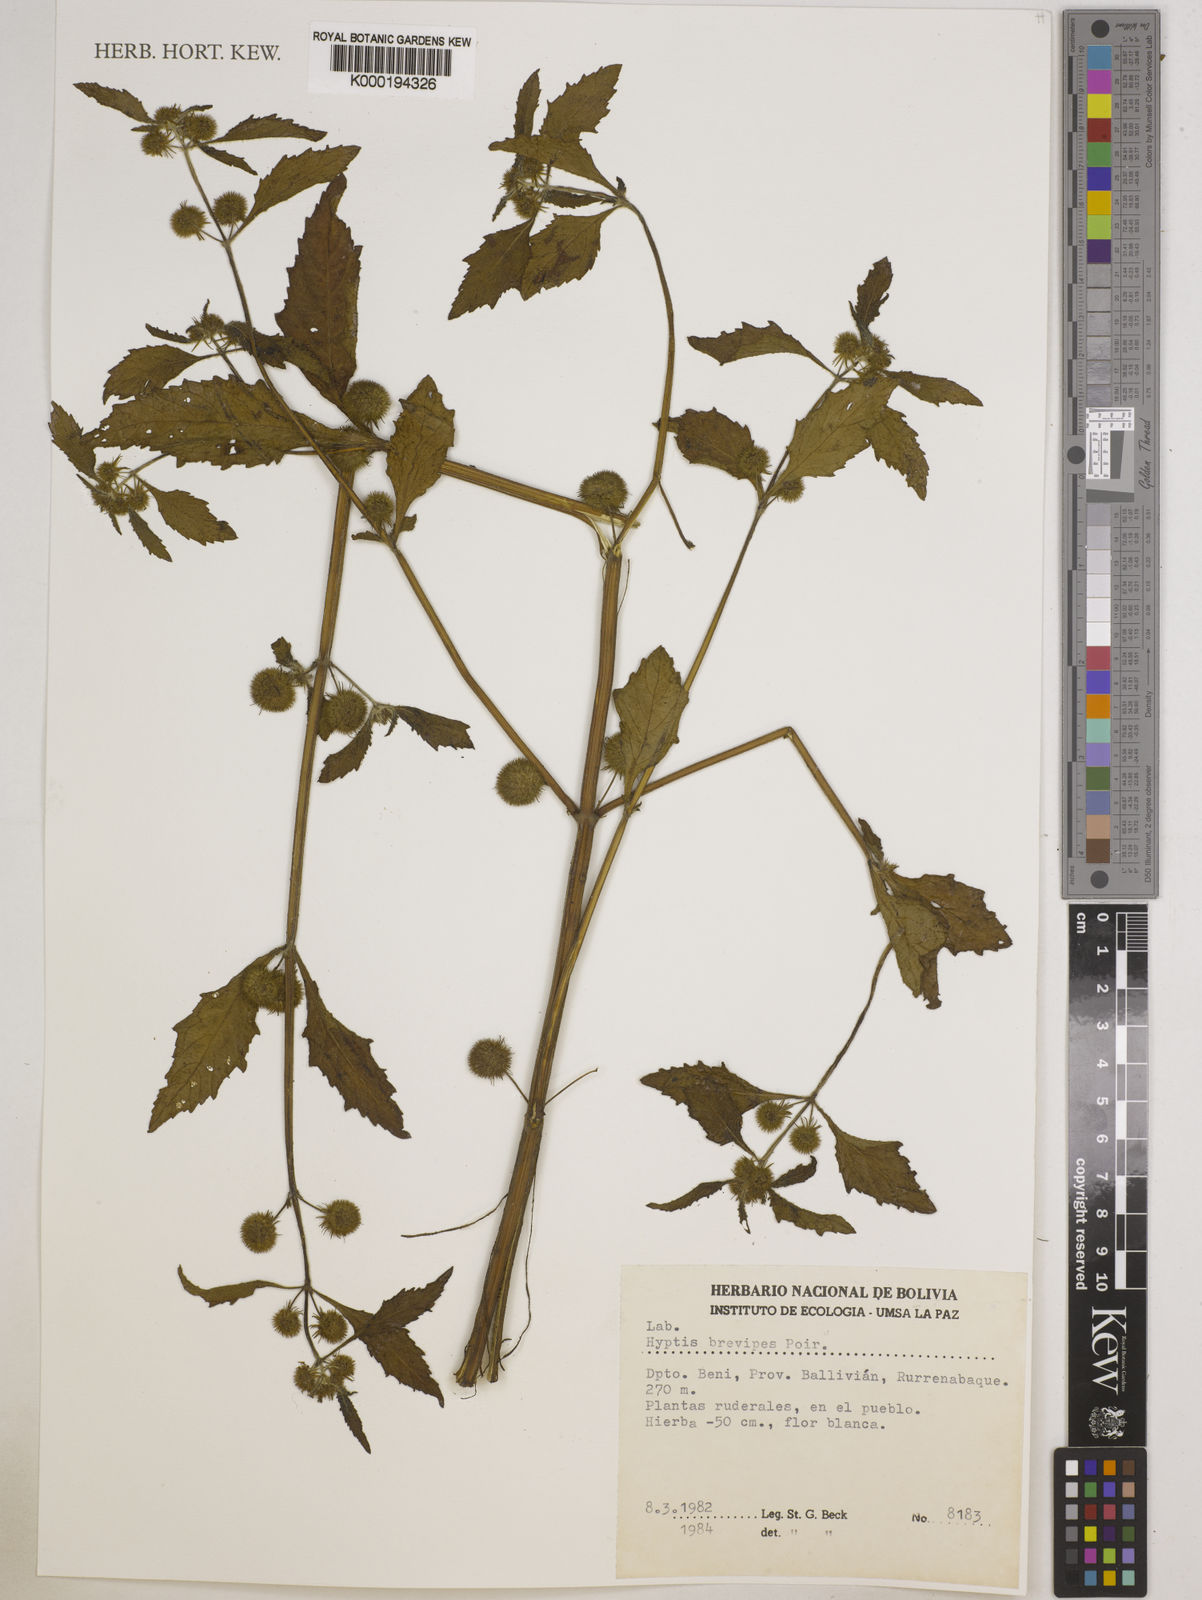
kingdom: Plantae
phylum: Tracheophyta
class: Magnoliopsida
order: Lamiales
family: Lamiaceae
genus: Hyptis
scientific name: Hyptis brevipes
